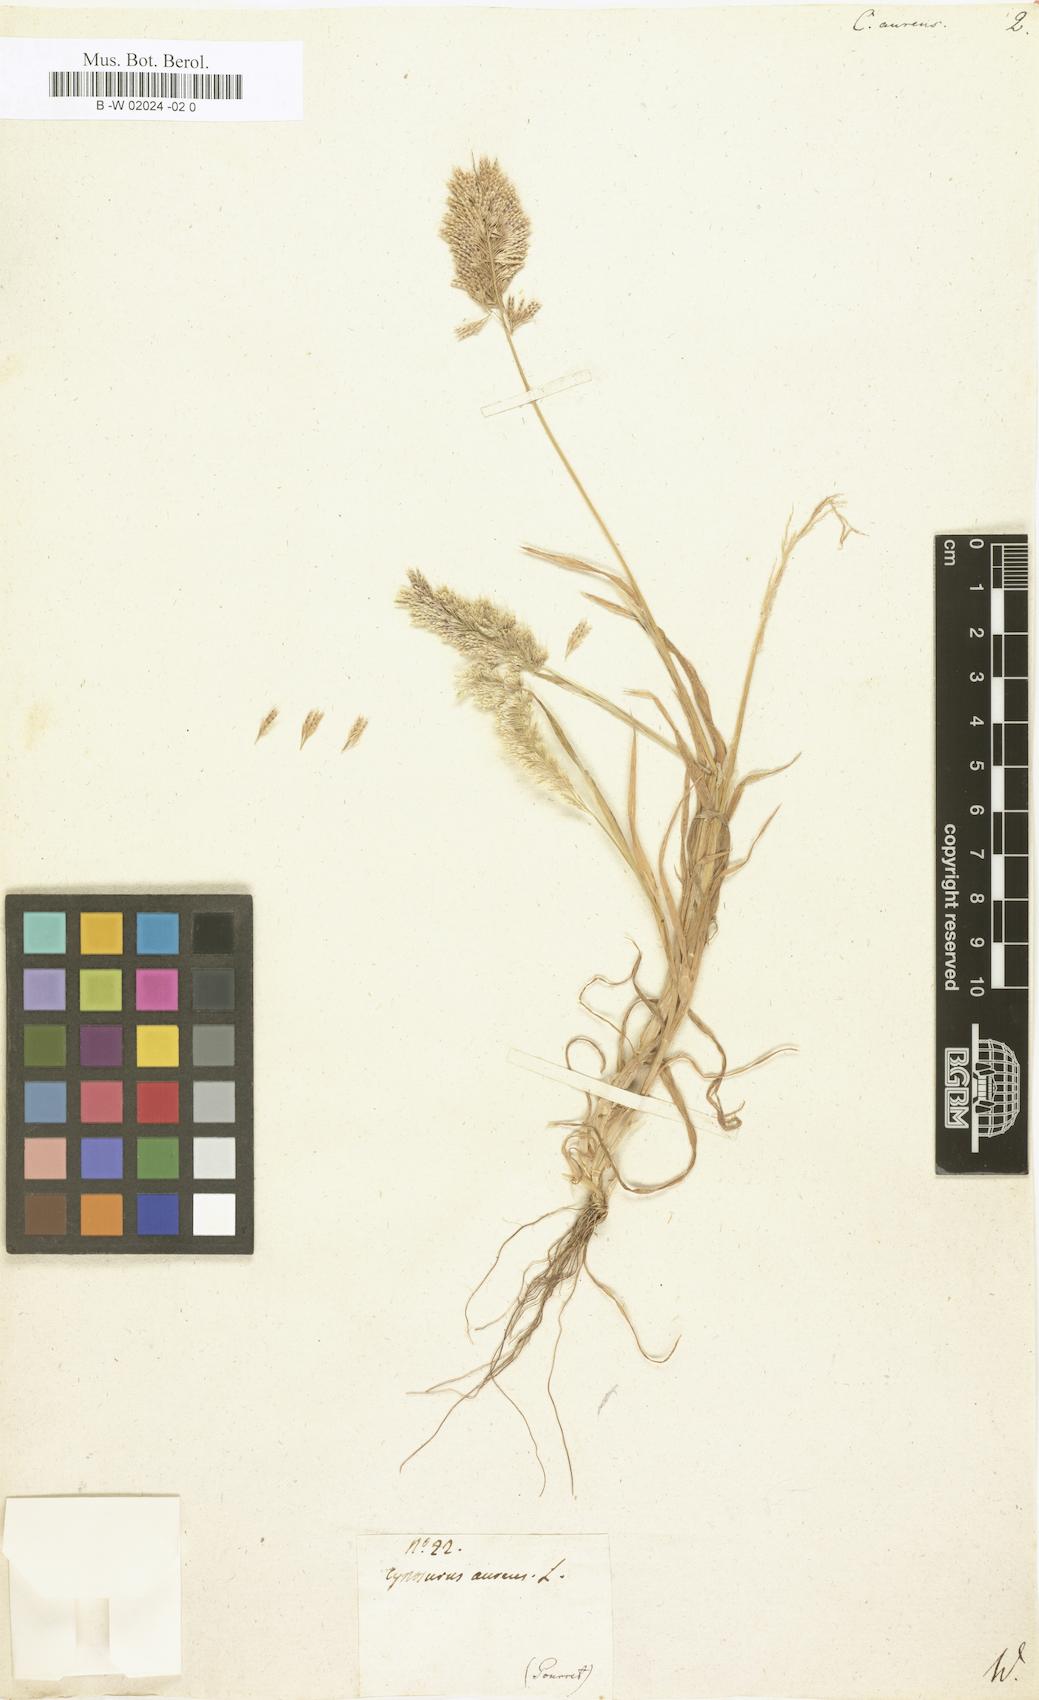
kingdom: Plantae
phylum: Tracheophyta
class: Liliopsida
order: Poales
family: Poaceae
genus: Lamarckia
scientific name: Lamarckia aurea
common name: Golden dog's-tail
